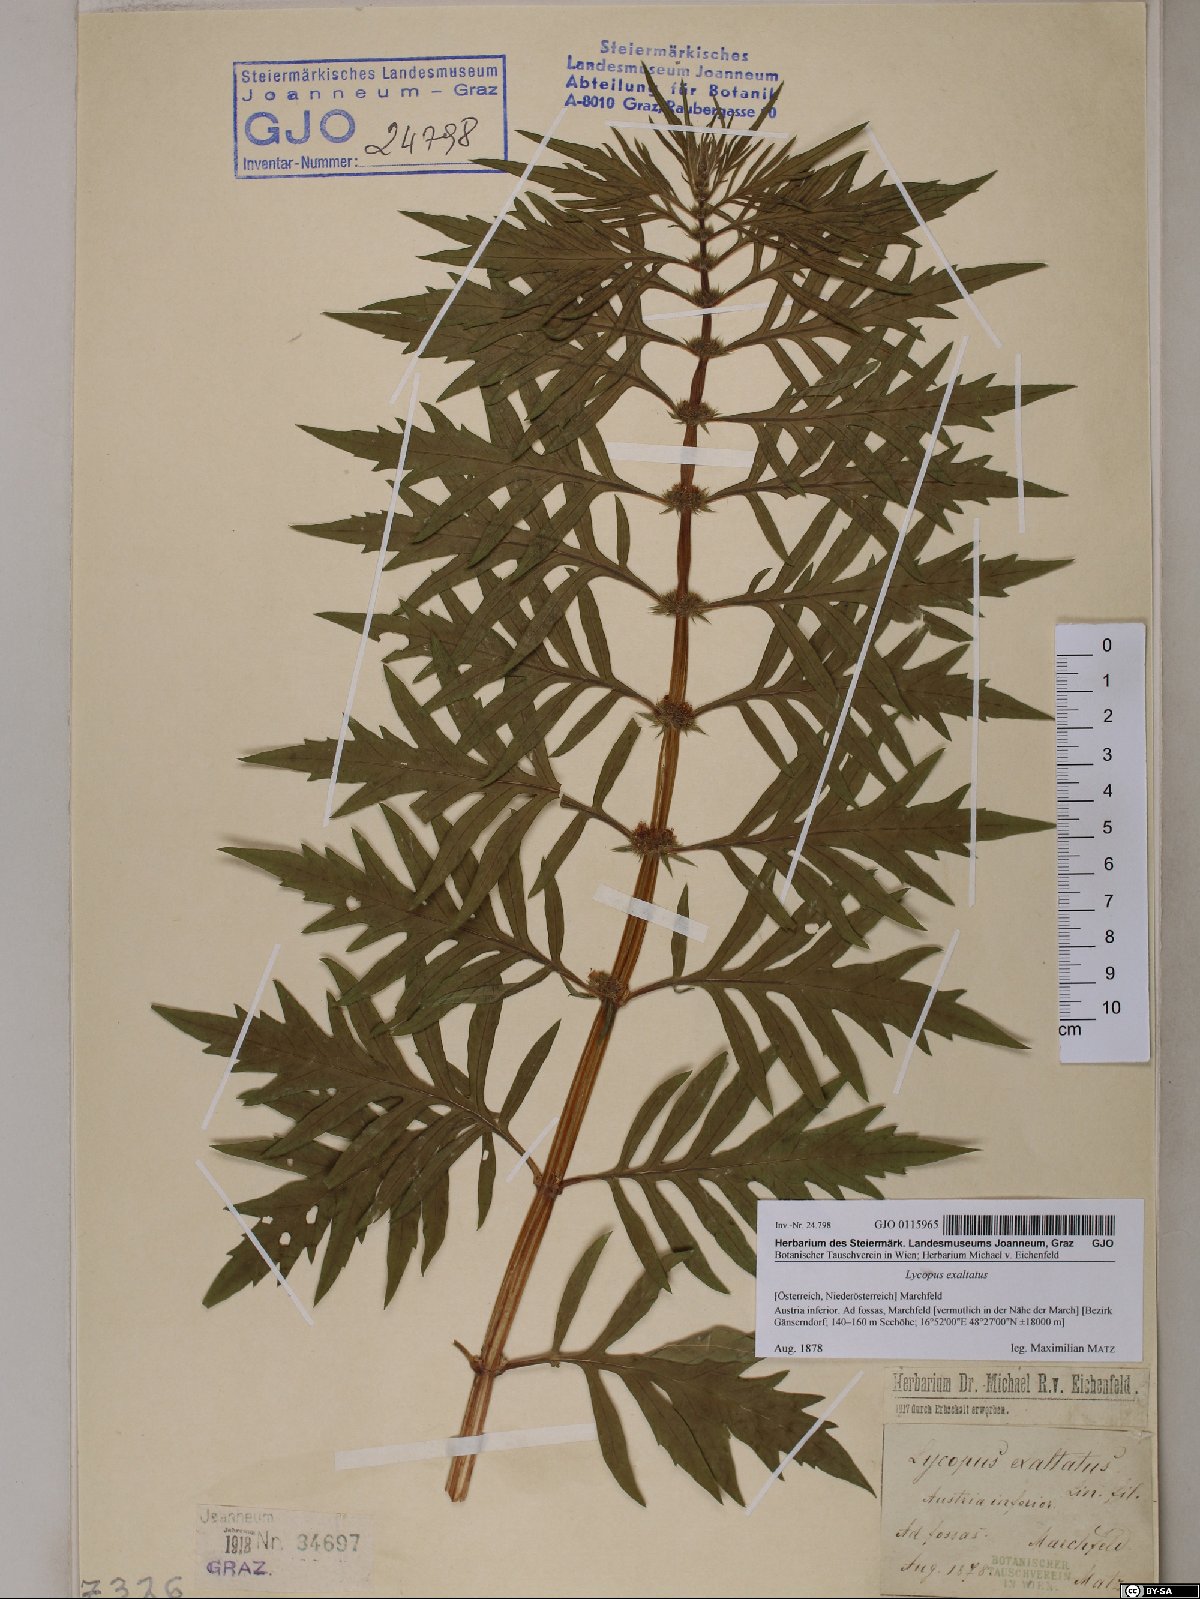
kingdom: Plantae
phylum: Tracheophyta
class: Magnoliopsida
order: Lamiales
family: Lamiaceae
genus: Lycopus
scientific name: Lycopus exaltatus
